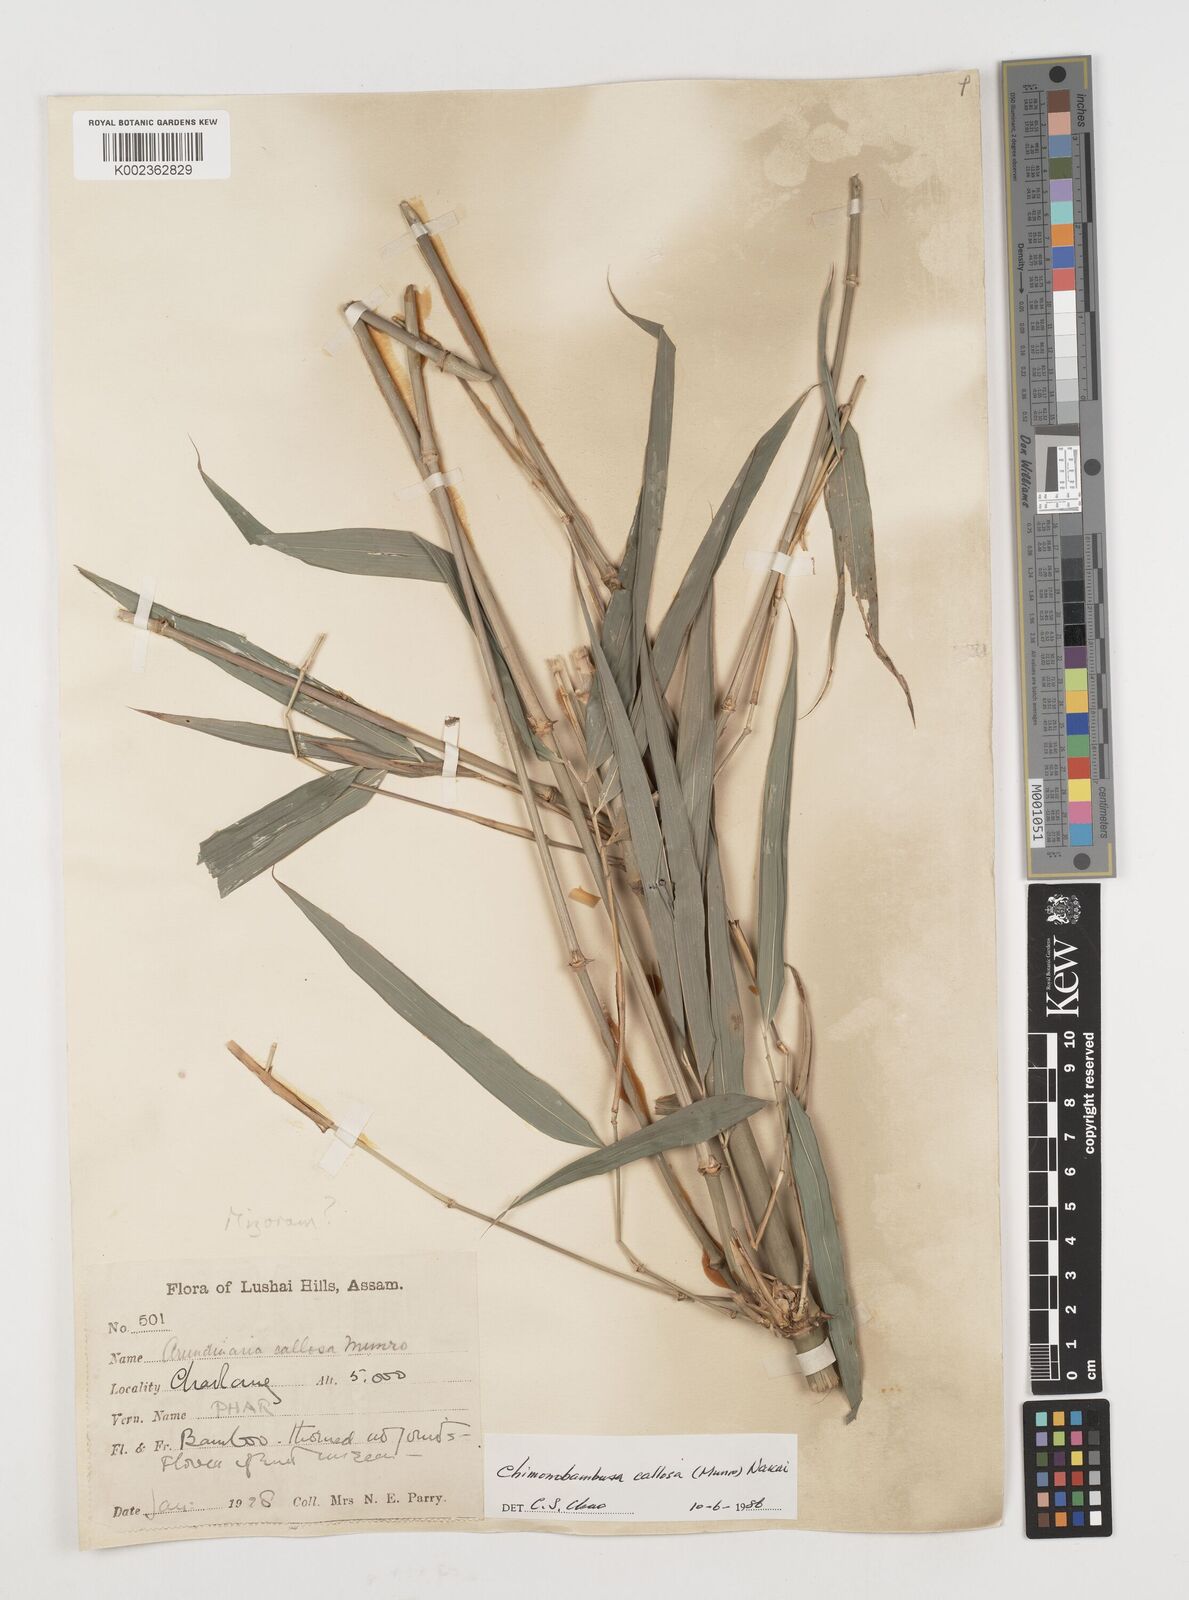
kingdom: Plantae
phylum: Tracheophyta
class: Liliopsida
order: Poales
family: Poaceae
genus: Chimonobambusa
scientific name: Chimonobambusa callosa
